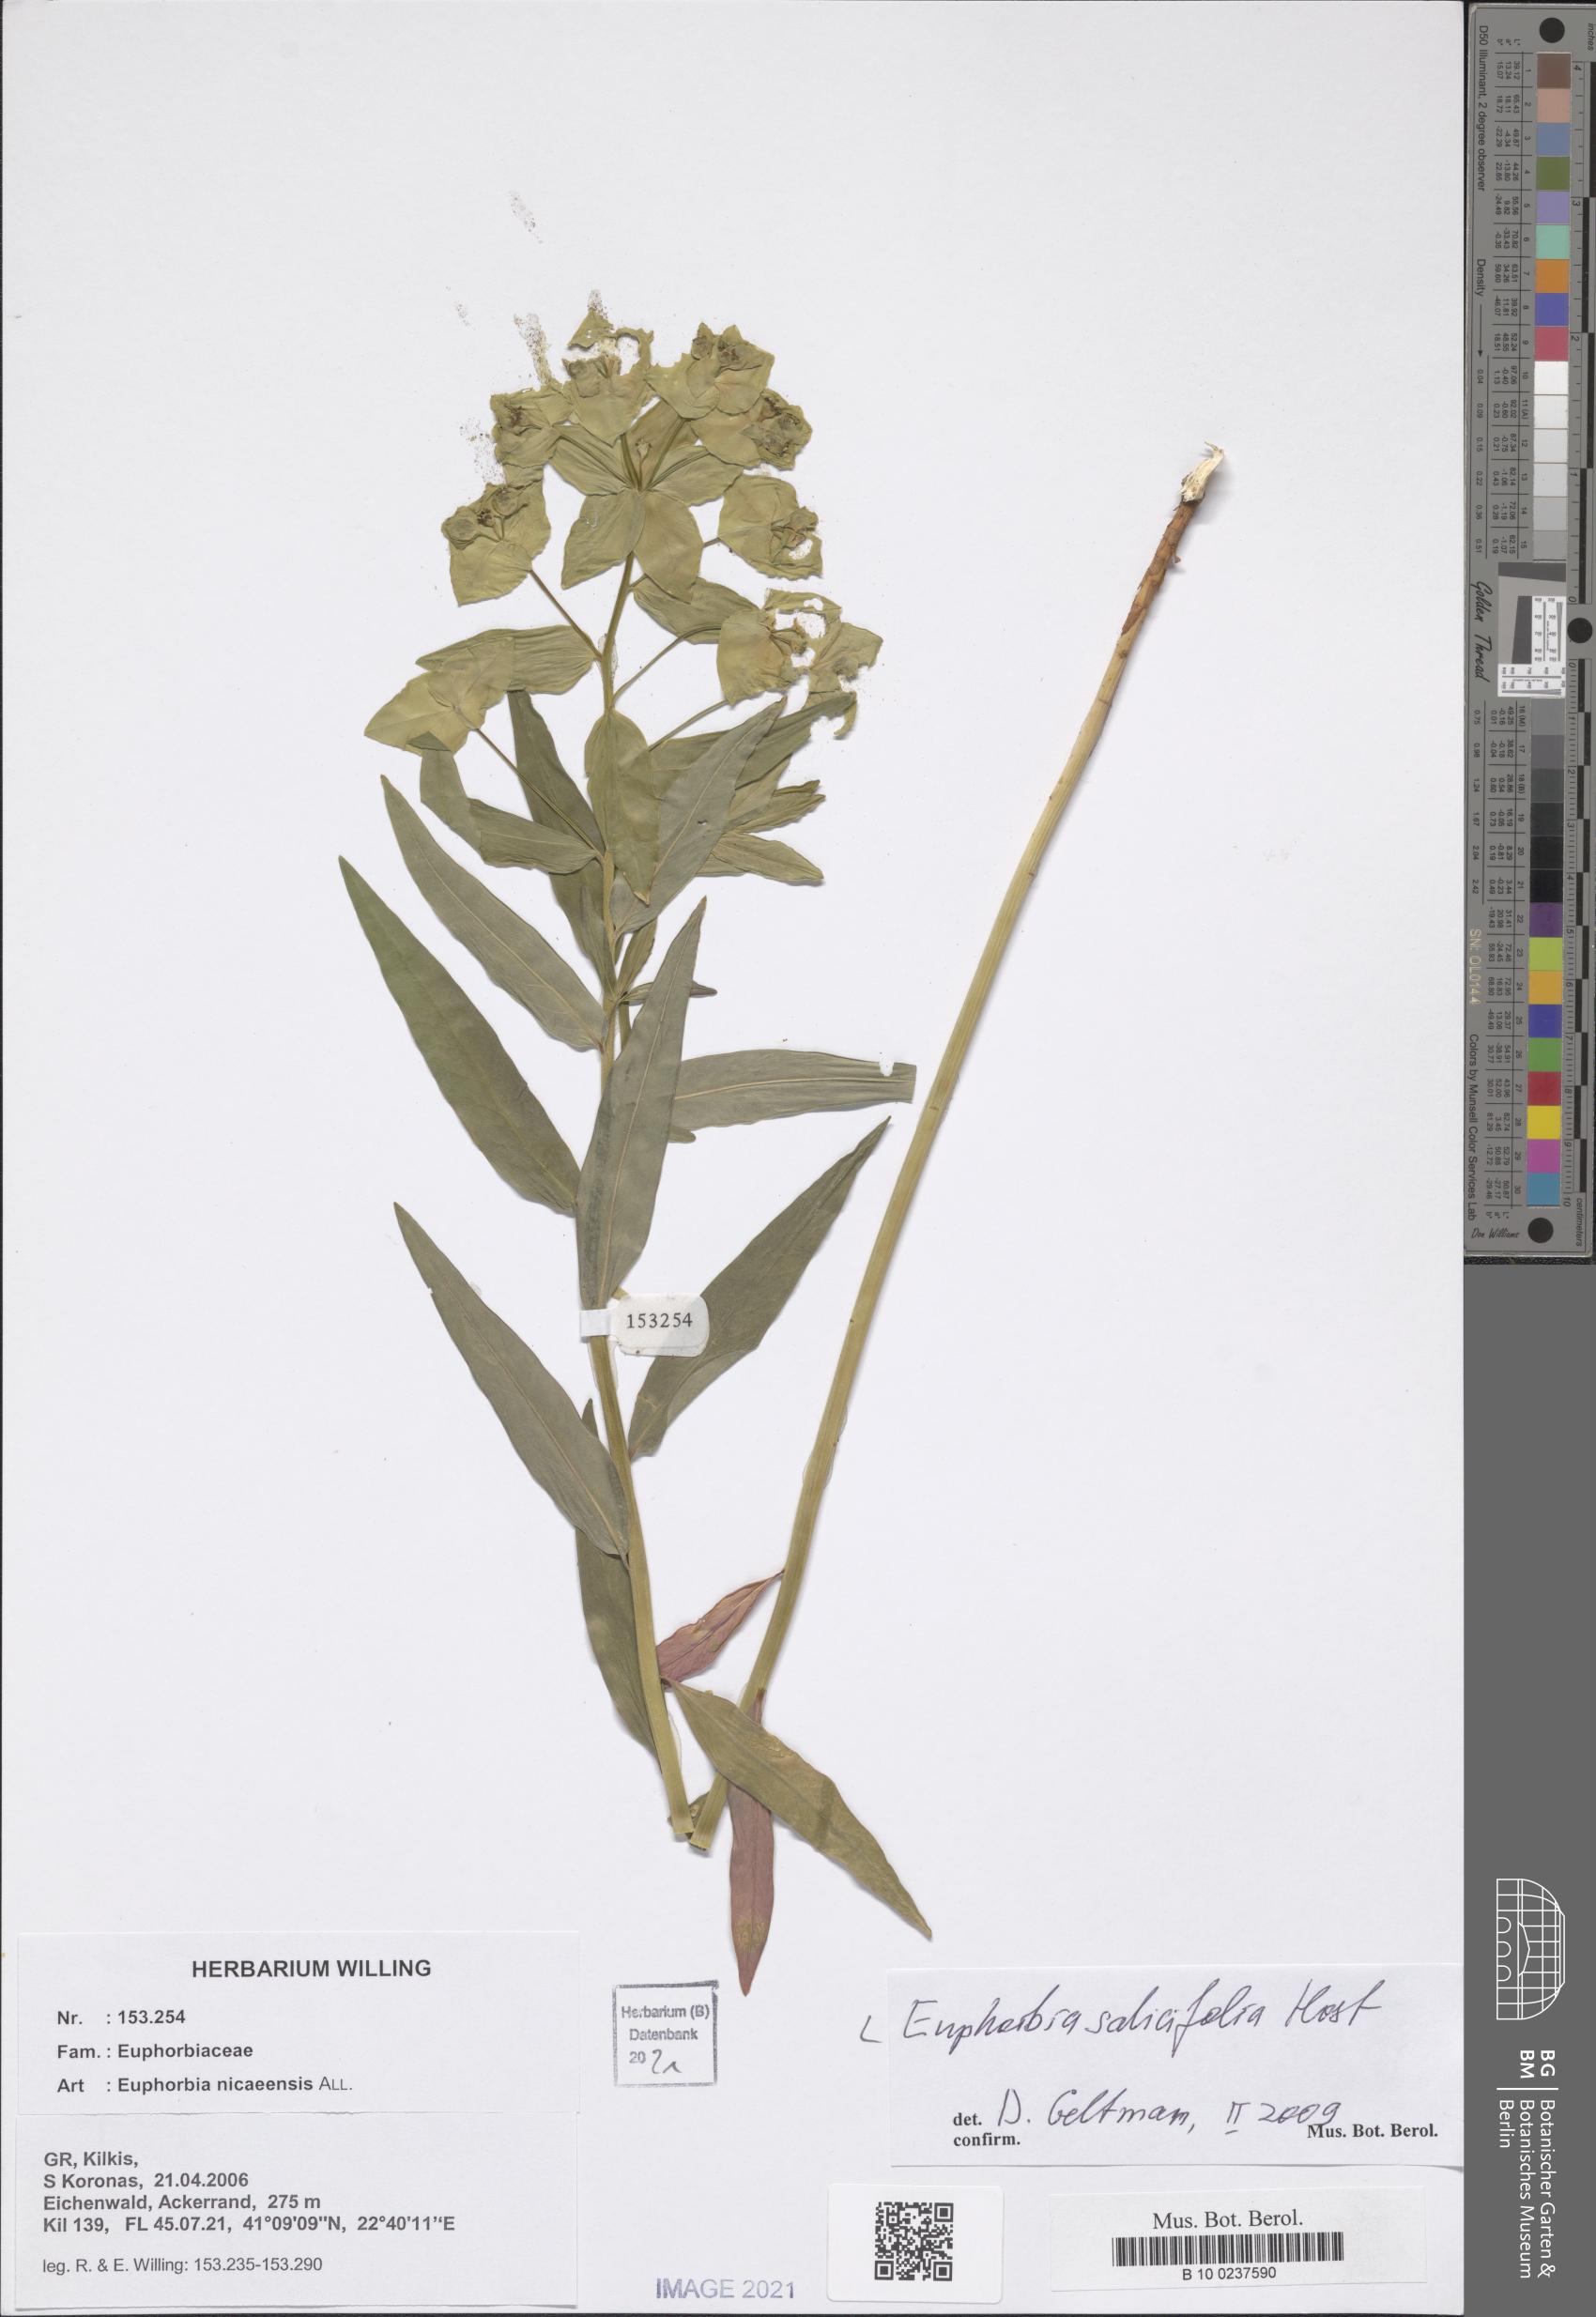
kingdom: Plantae
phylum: Tracheophyta
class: Magnoliopsida
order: Malpighiales
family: Euphorbiaceae
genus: Euphorbia
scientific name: Euphorbia salicifolia
